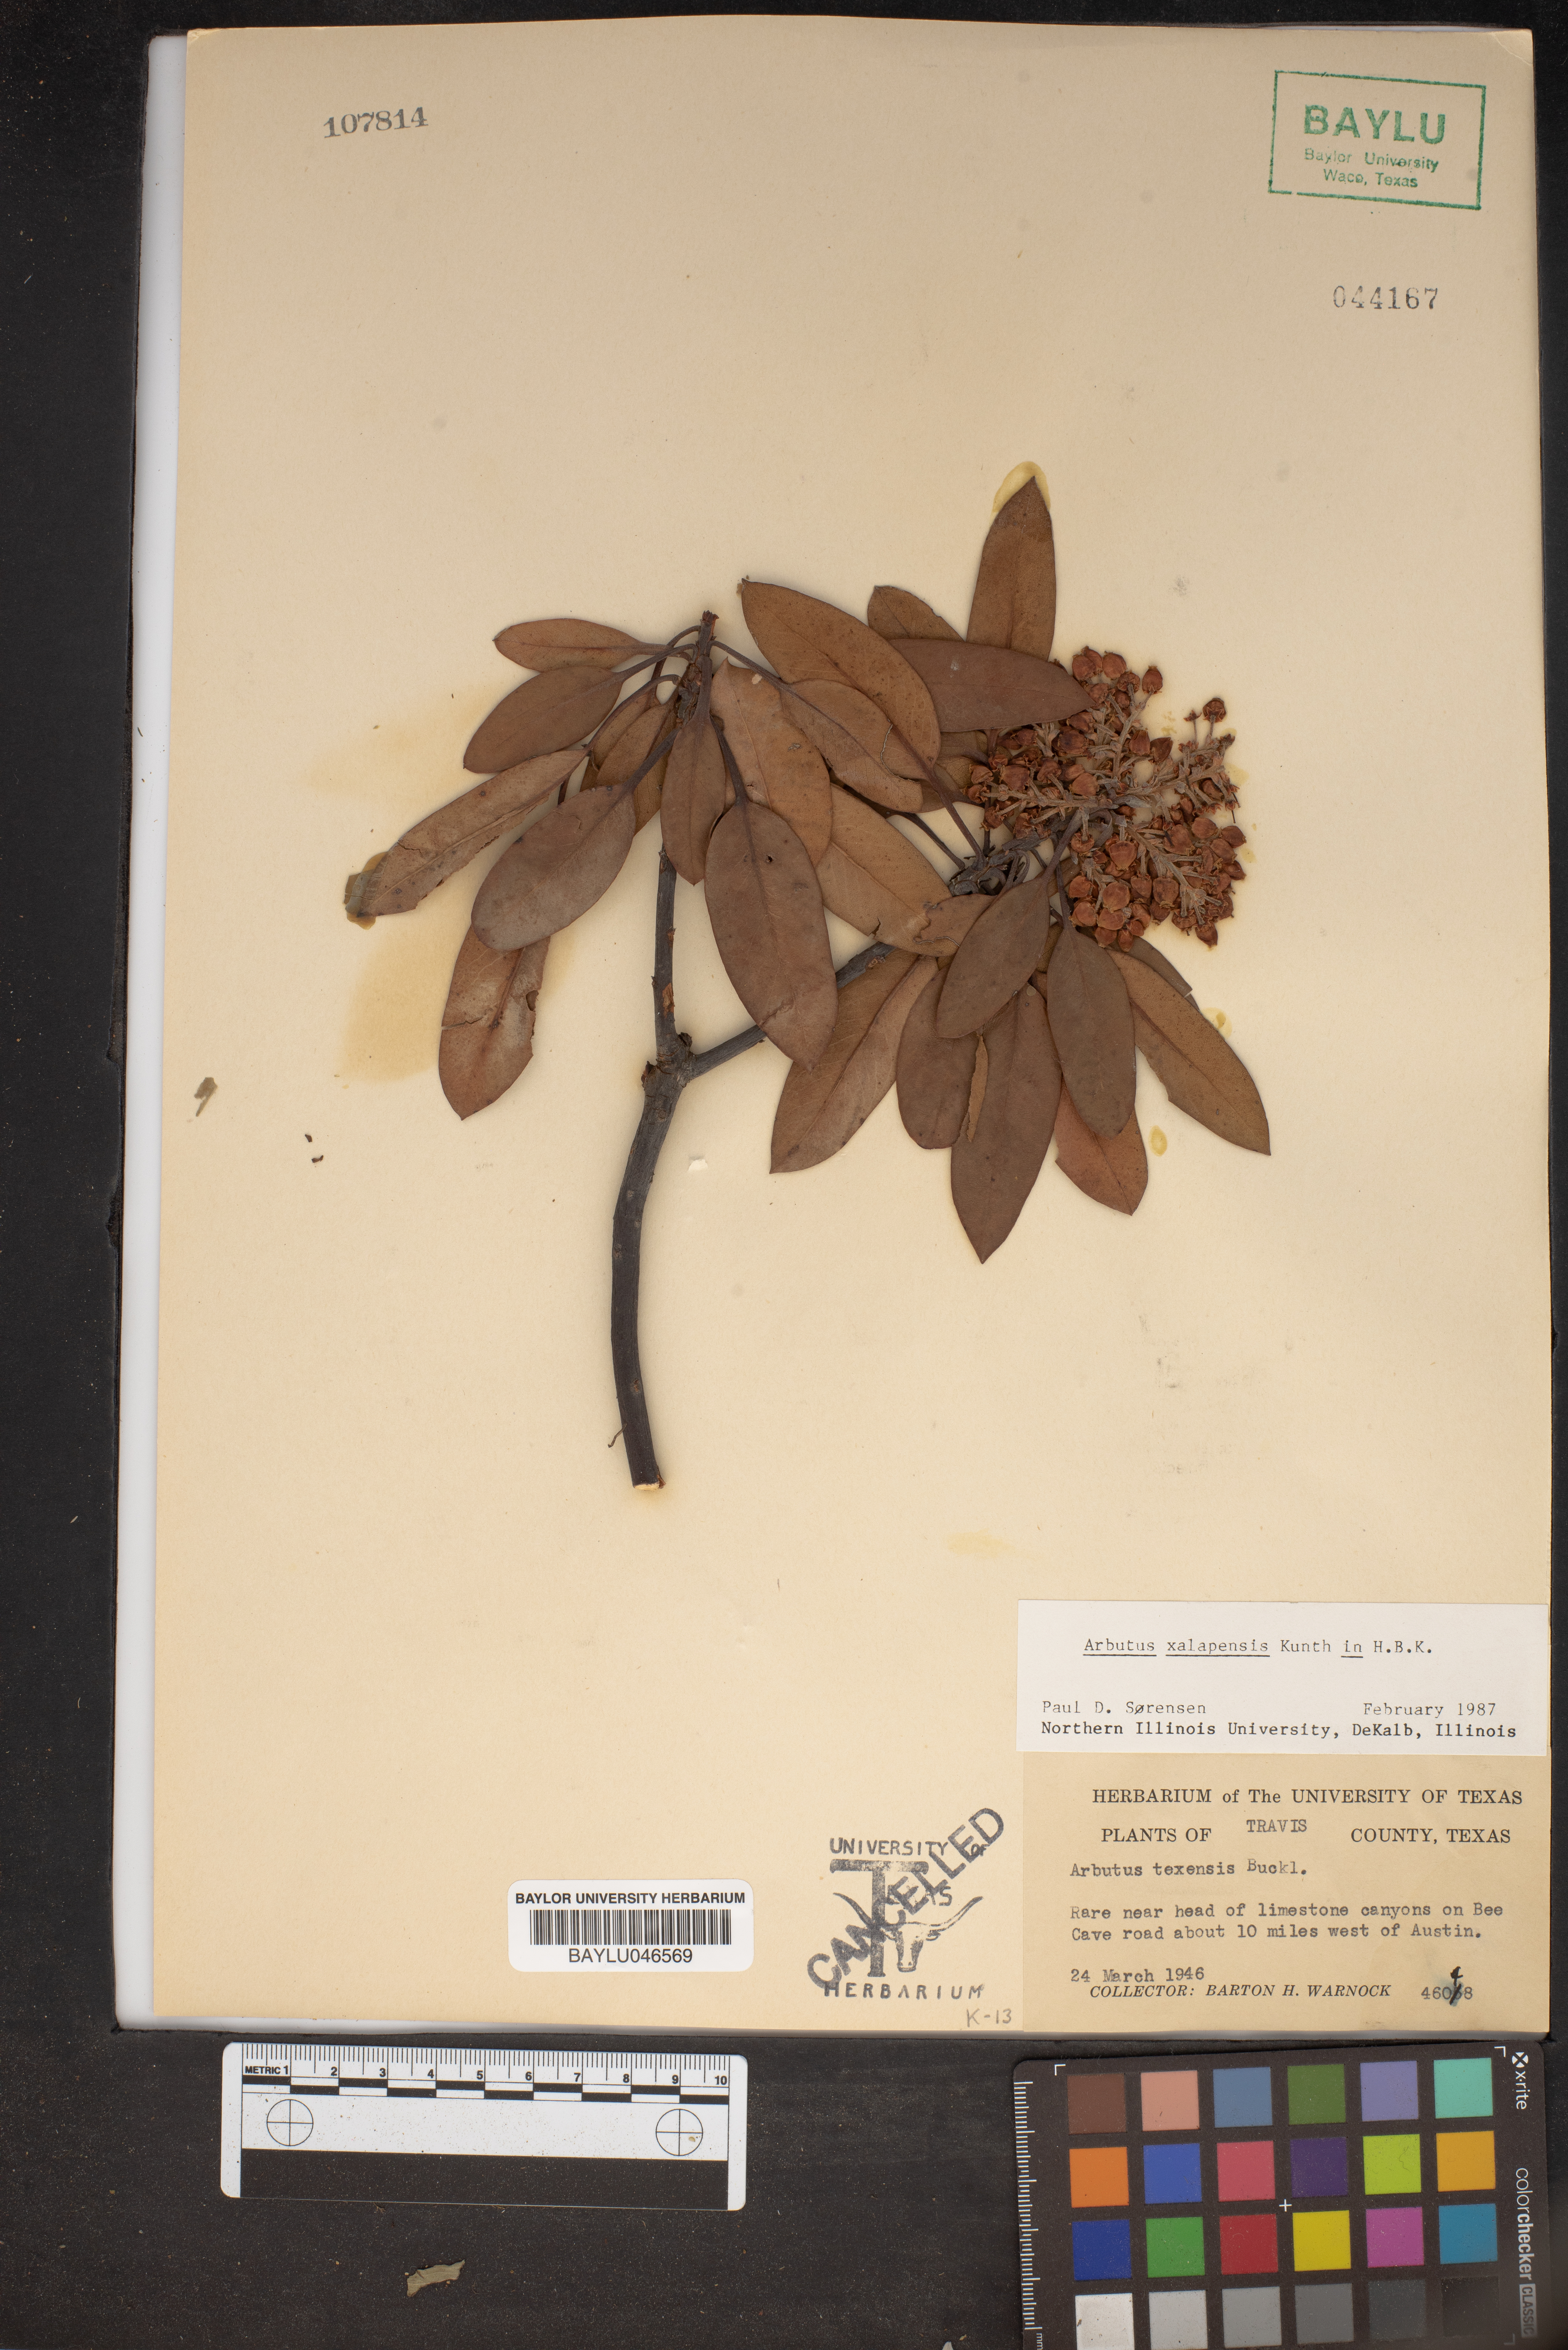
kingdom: Plantae
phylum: Tracheophyta
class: Magnoliopsida
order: Ericales
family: Ericaceae
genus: Arbutus
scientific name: Arbutus xalapensis
